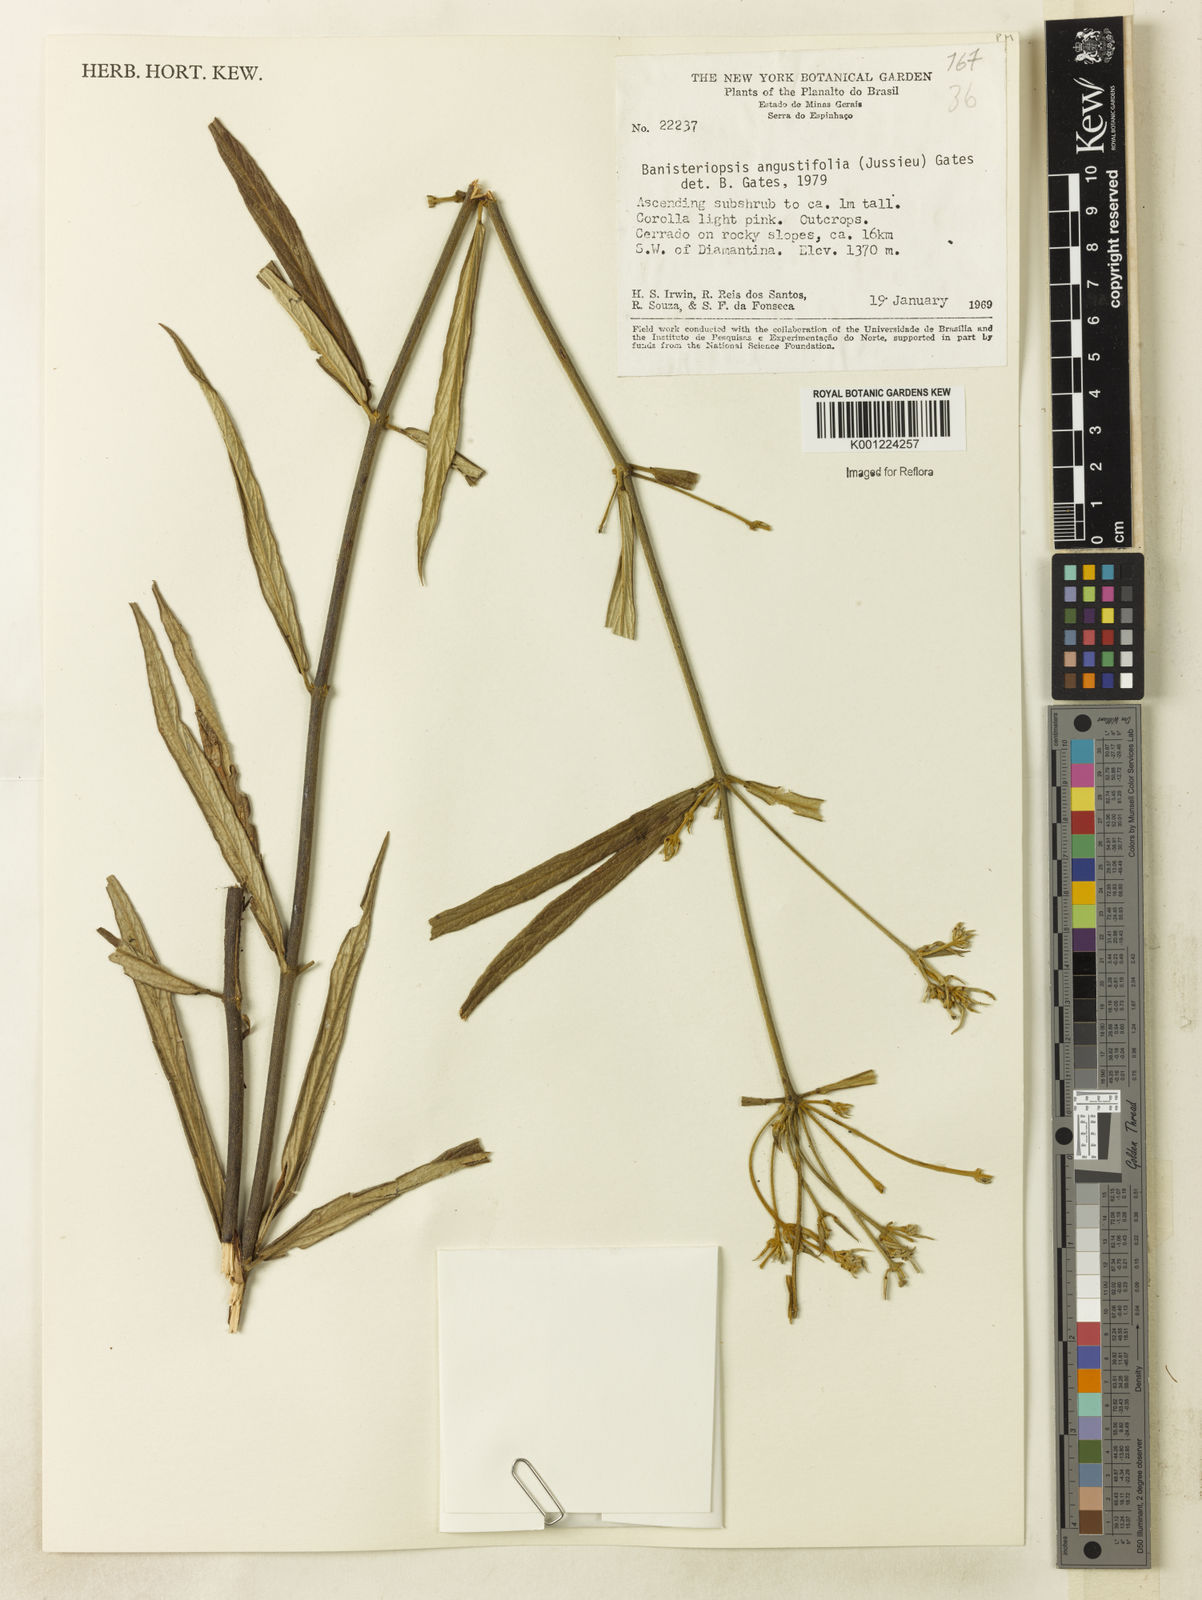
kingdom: Plantae
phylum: Tracheophyta
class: Magnoliopsida
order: Malpighiales
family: Malpighiaceae
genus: Banisteriopsis
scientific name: Banisteriopsis angustifolia
